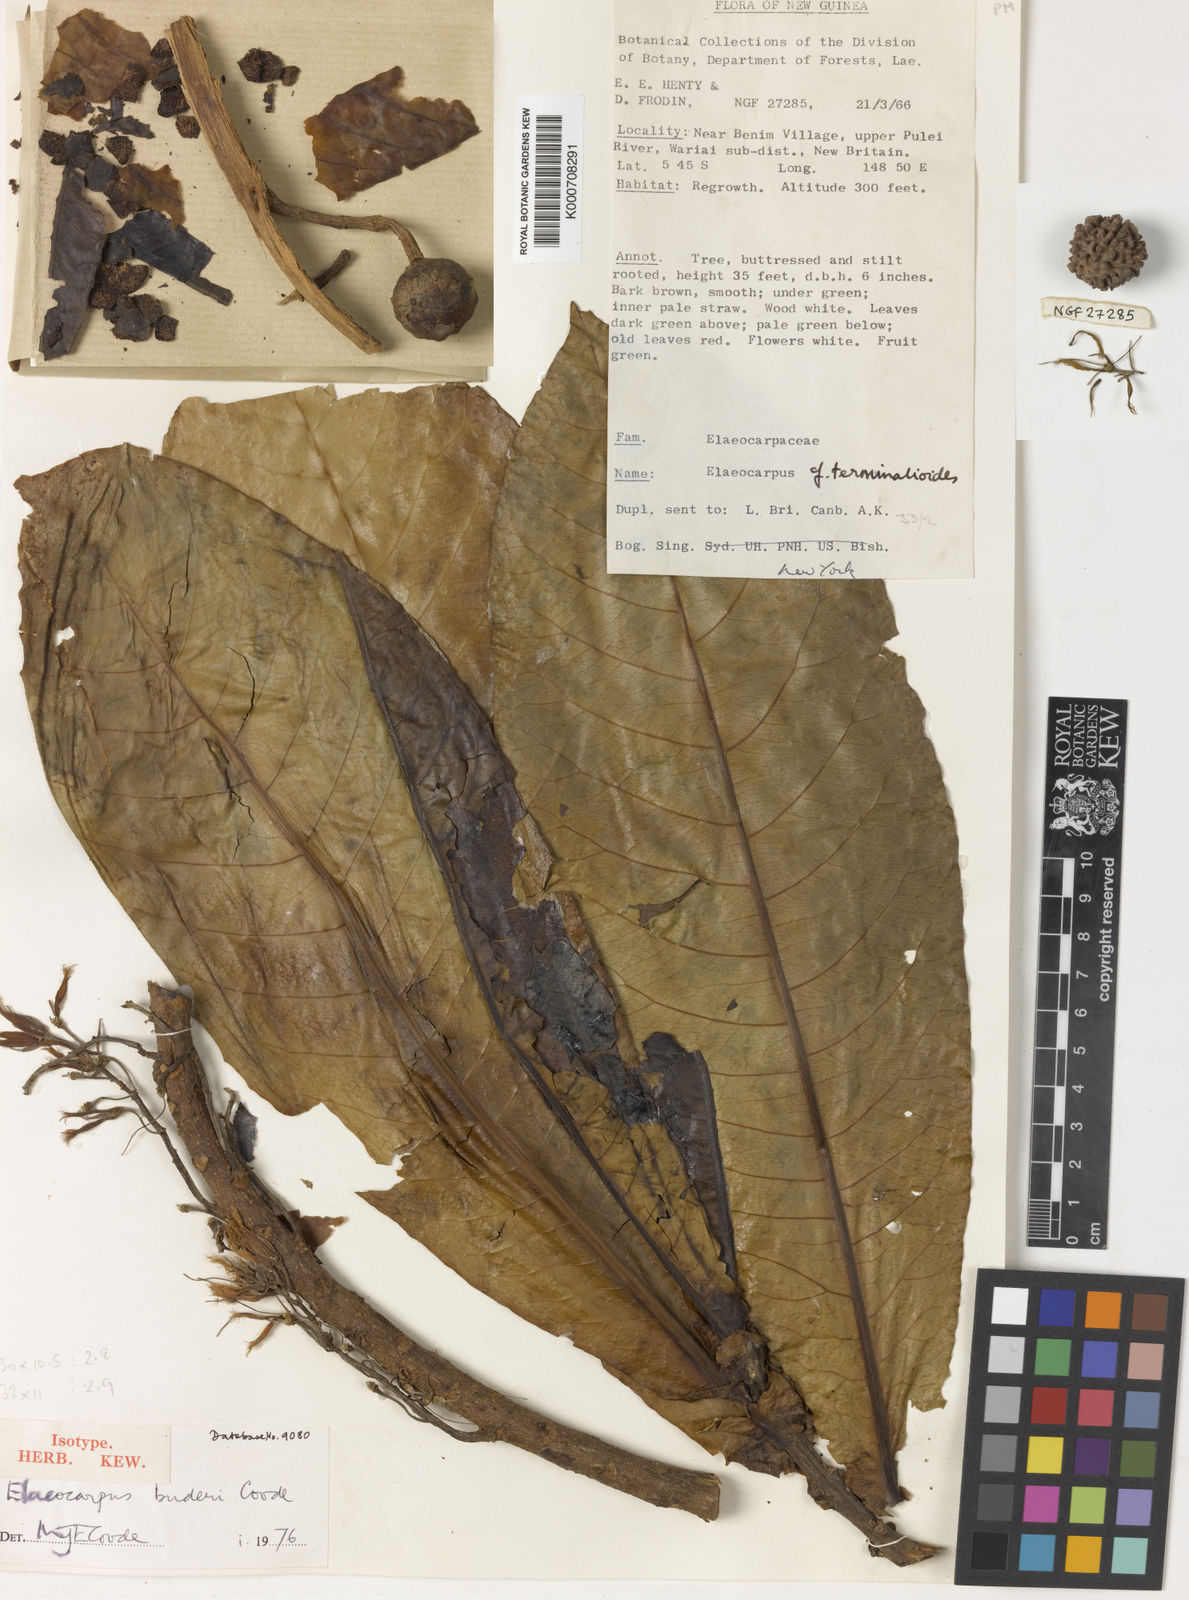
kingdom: Plantae
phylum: Tracheophyta
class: Magnoliopsida
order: Oxalidales
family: Elaeocarpaceae
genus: Elaeocarpus
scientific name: Elaeocarpus buderi
